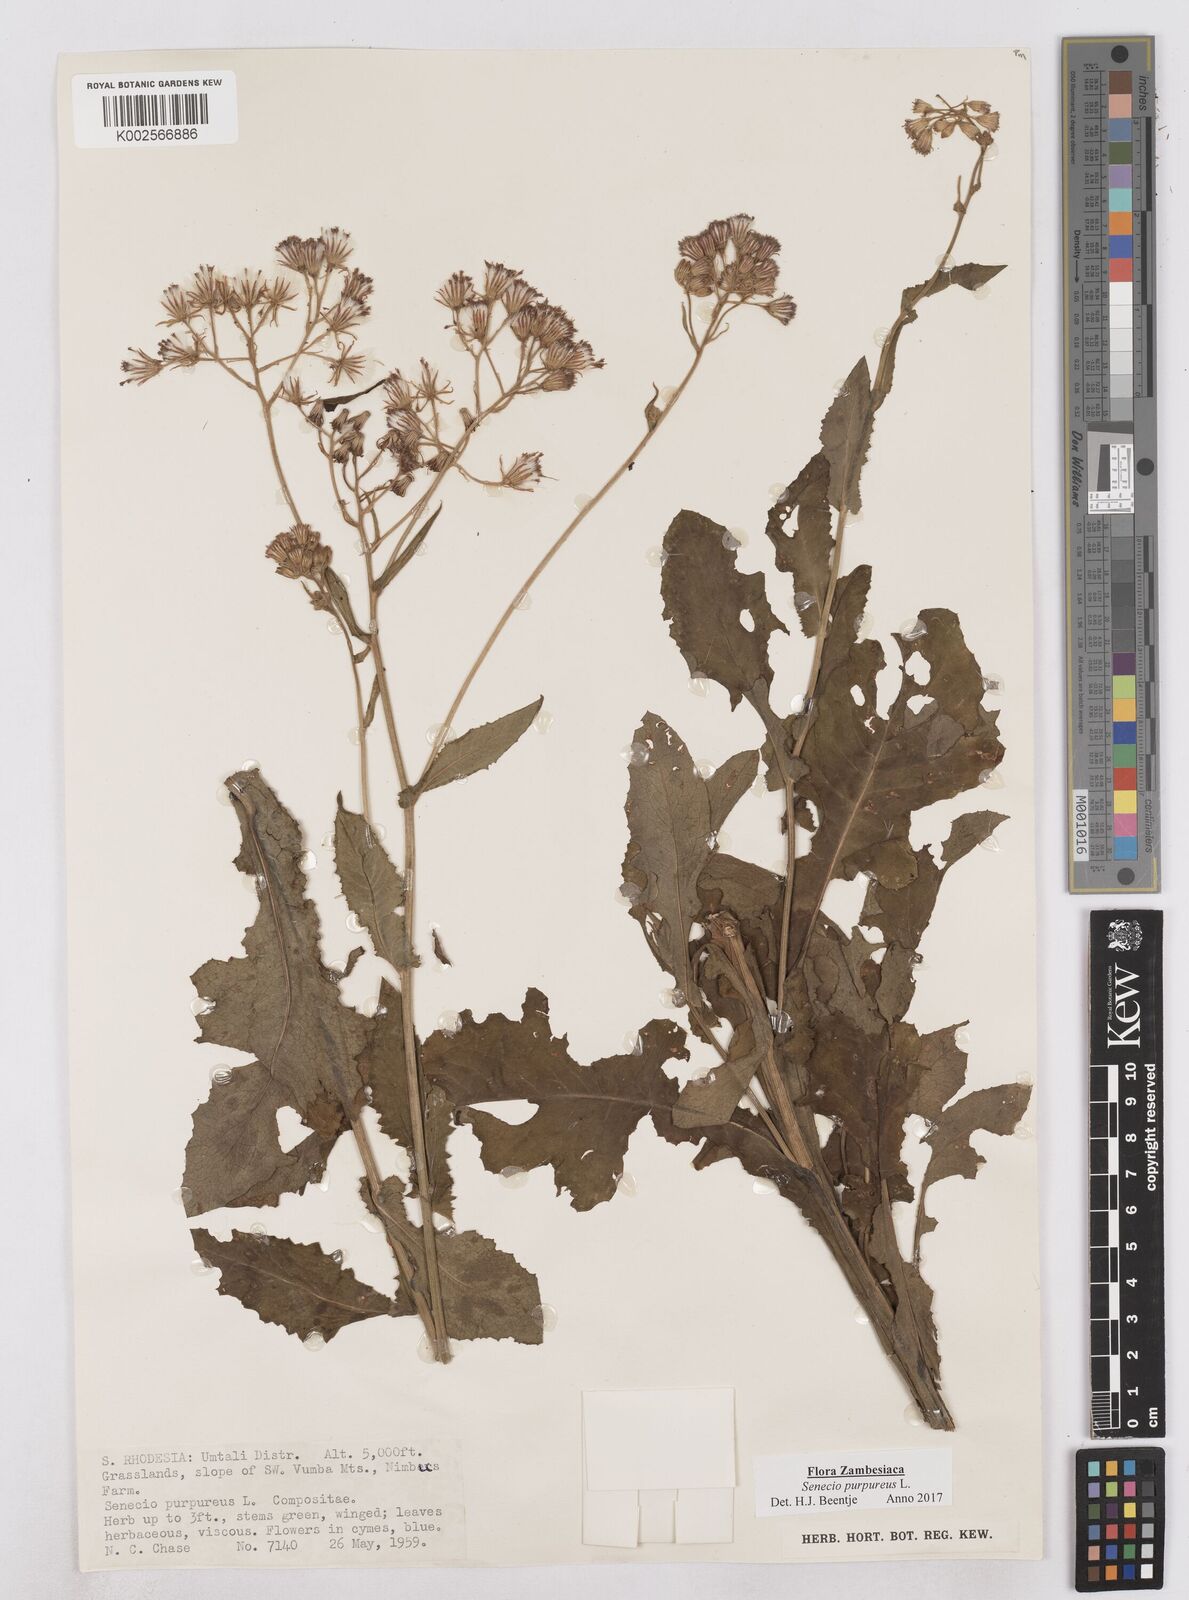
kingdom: Plantae
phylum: Tracheophyta
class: Magnoliopsida
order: Asterales
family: Asteraceae
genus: Senecio
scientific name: Senecio purpureus
